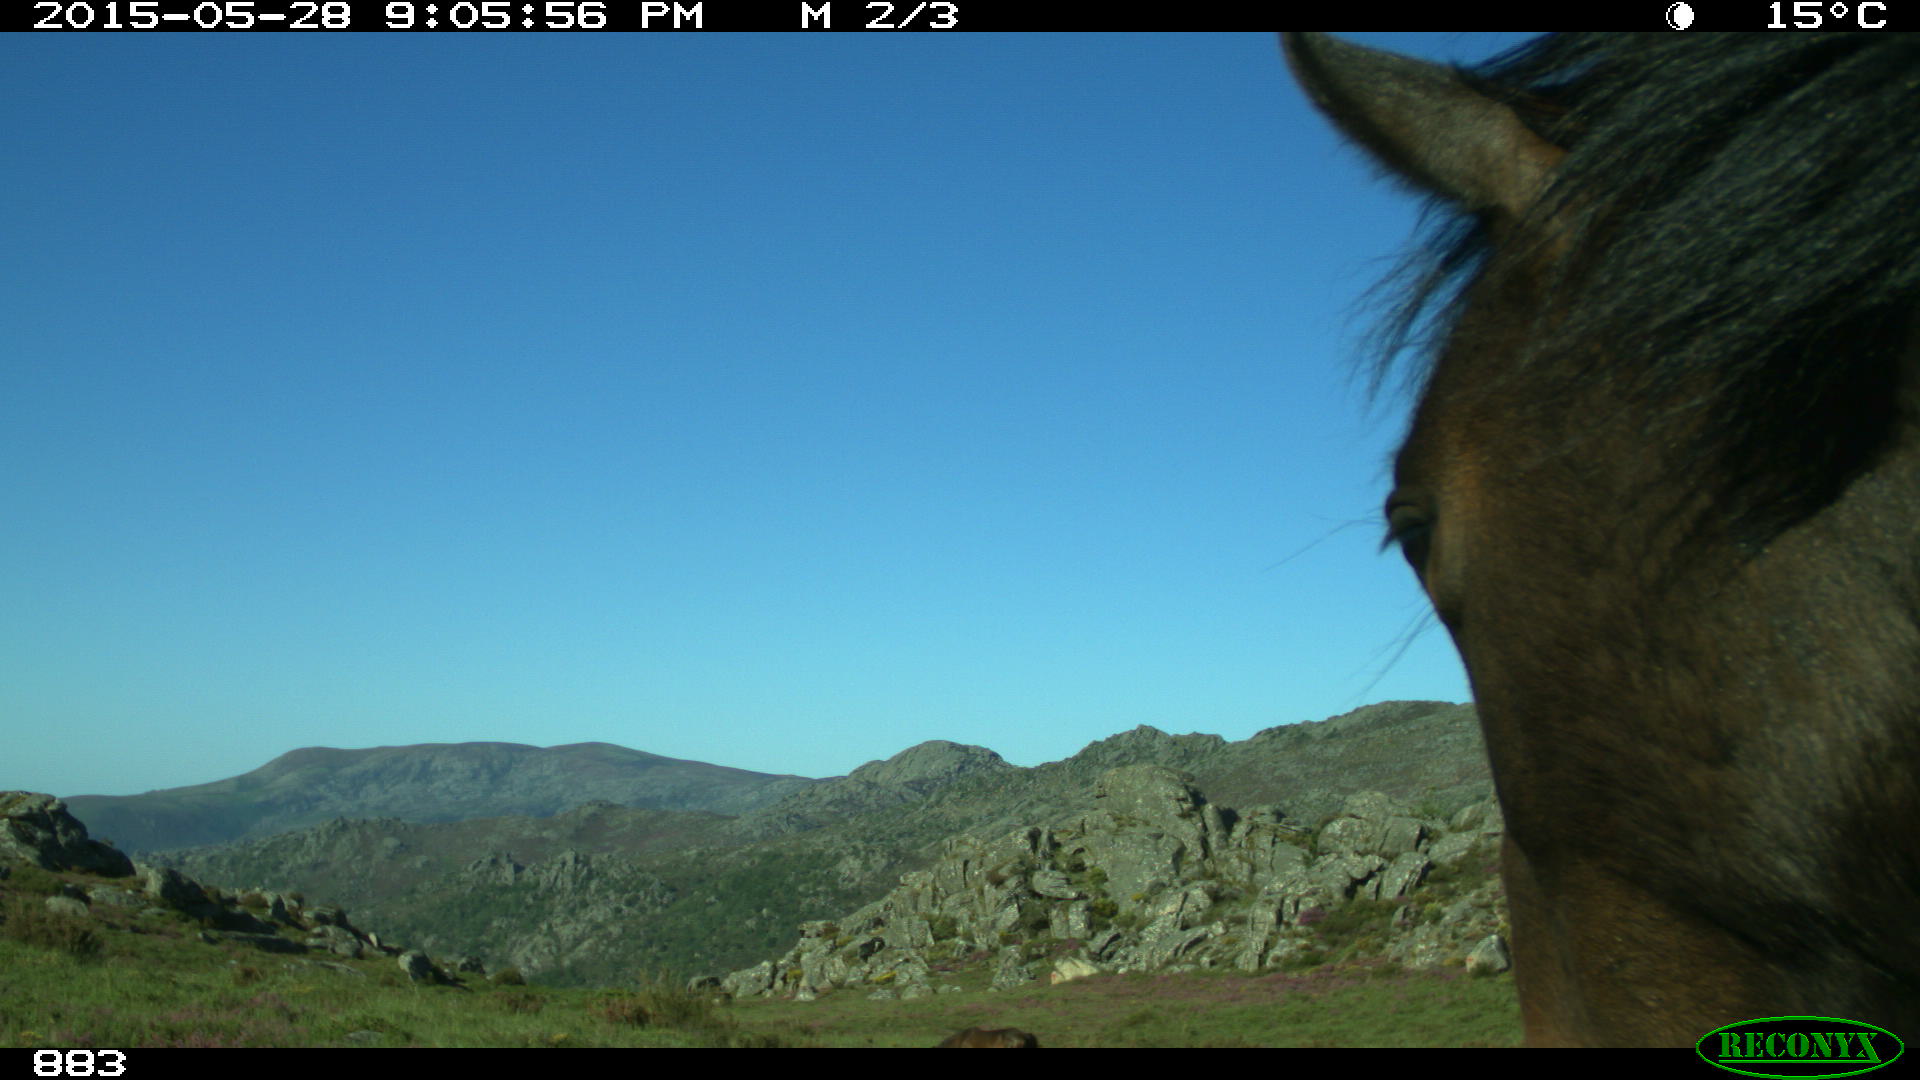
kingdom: Animalia
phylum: Chordata
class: Mammalia
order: Perissodactyla
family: Equidae
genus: Equus
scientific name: Equus caballus
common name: Horse
